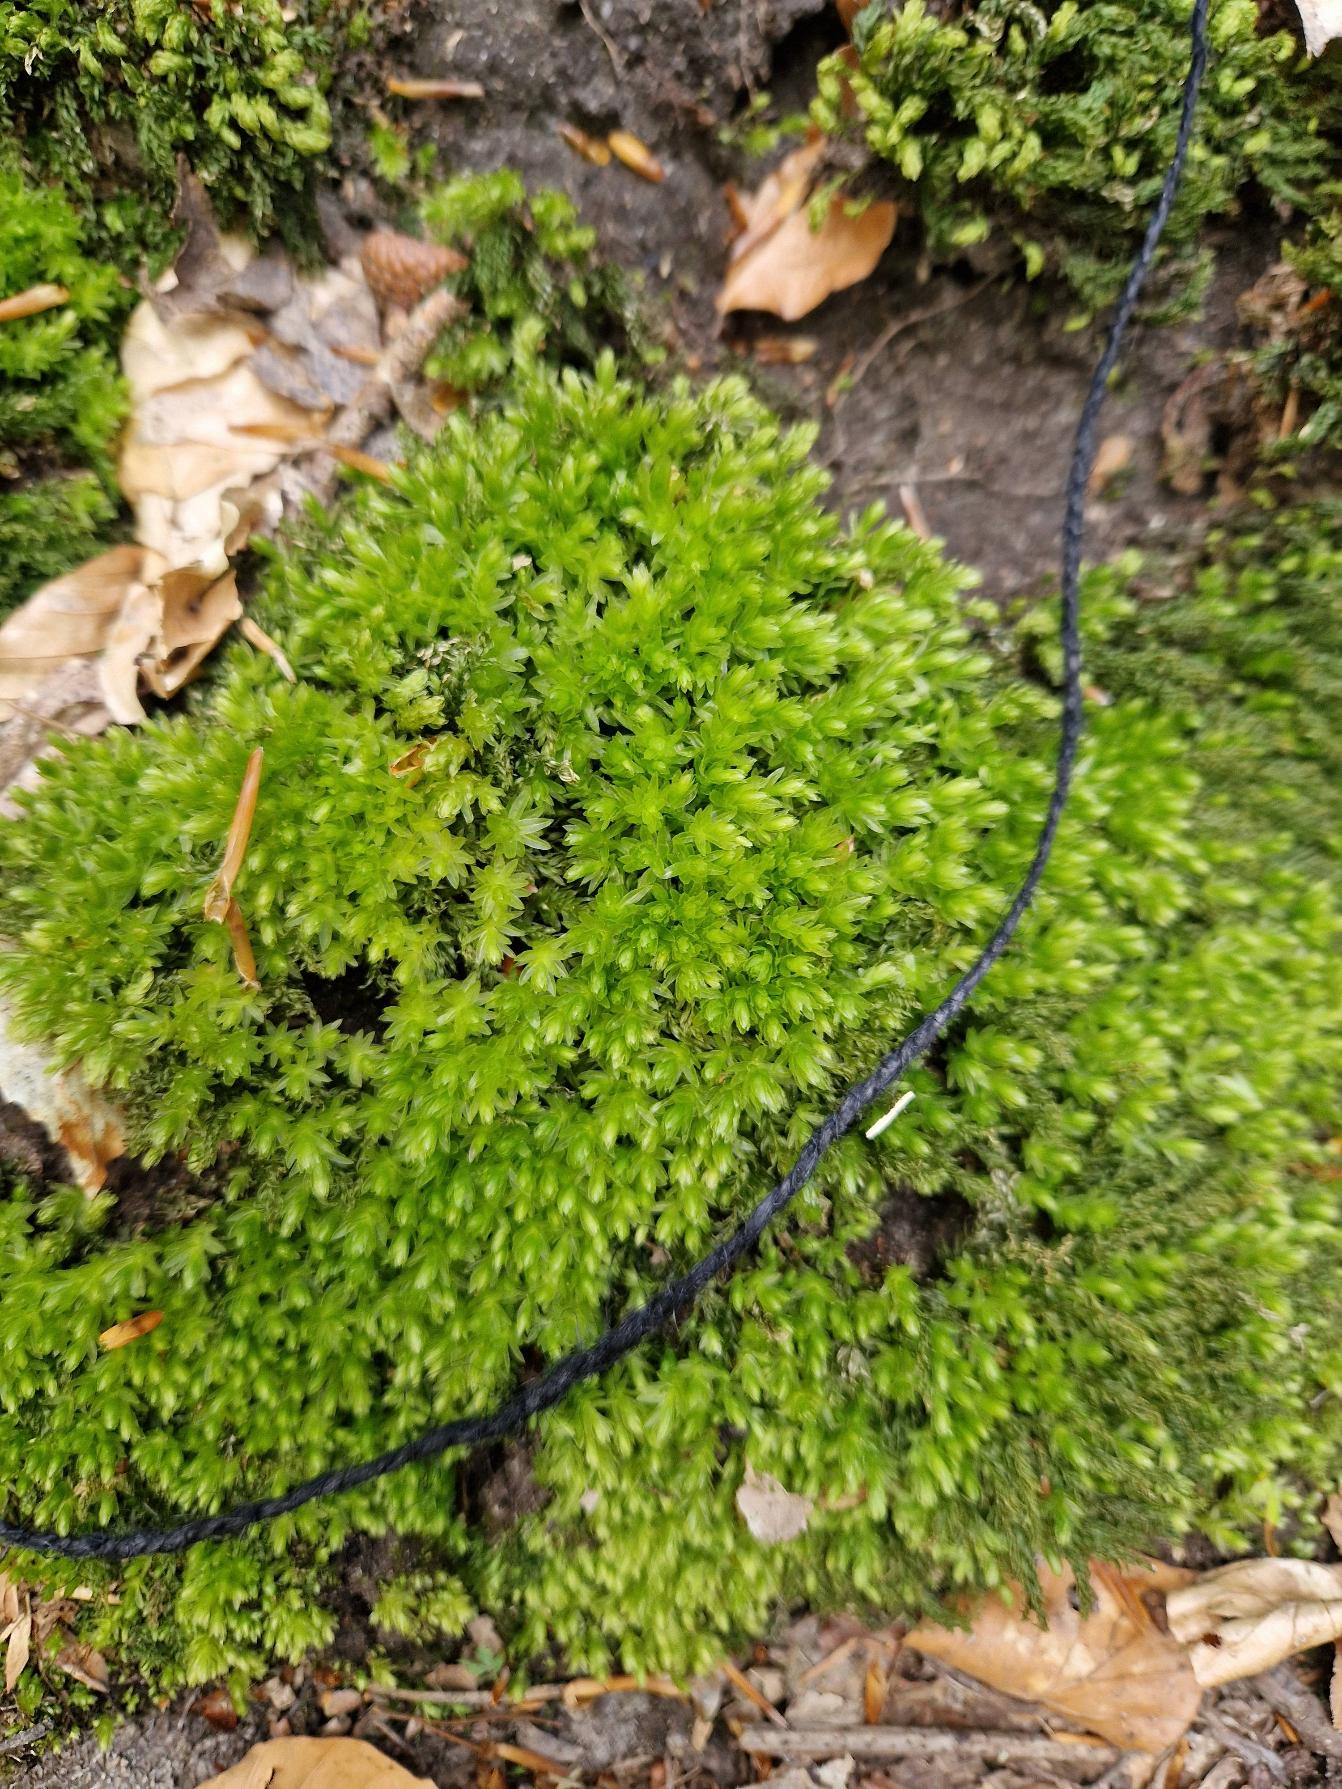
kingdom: Plantae
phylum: Bryophyta
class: Bryopsida
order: Bryales
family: Mniaceae
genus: Mnium
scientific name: Mnium hornum
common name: Brunfiltet stjernemos
